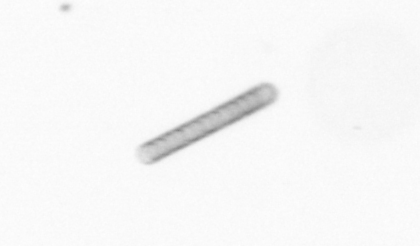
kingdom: Chromista
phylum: Ochrophyta
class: Bacillariophyceae
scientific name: Bacillariophyceae
